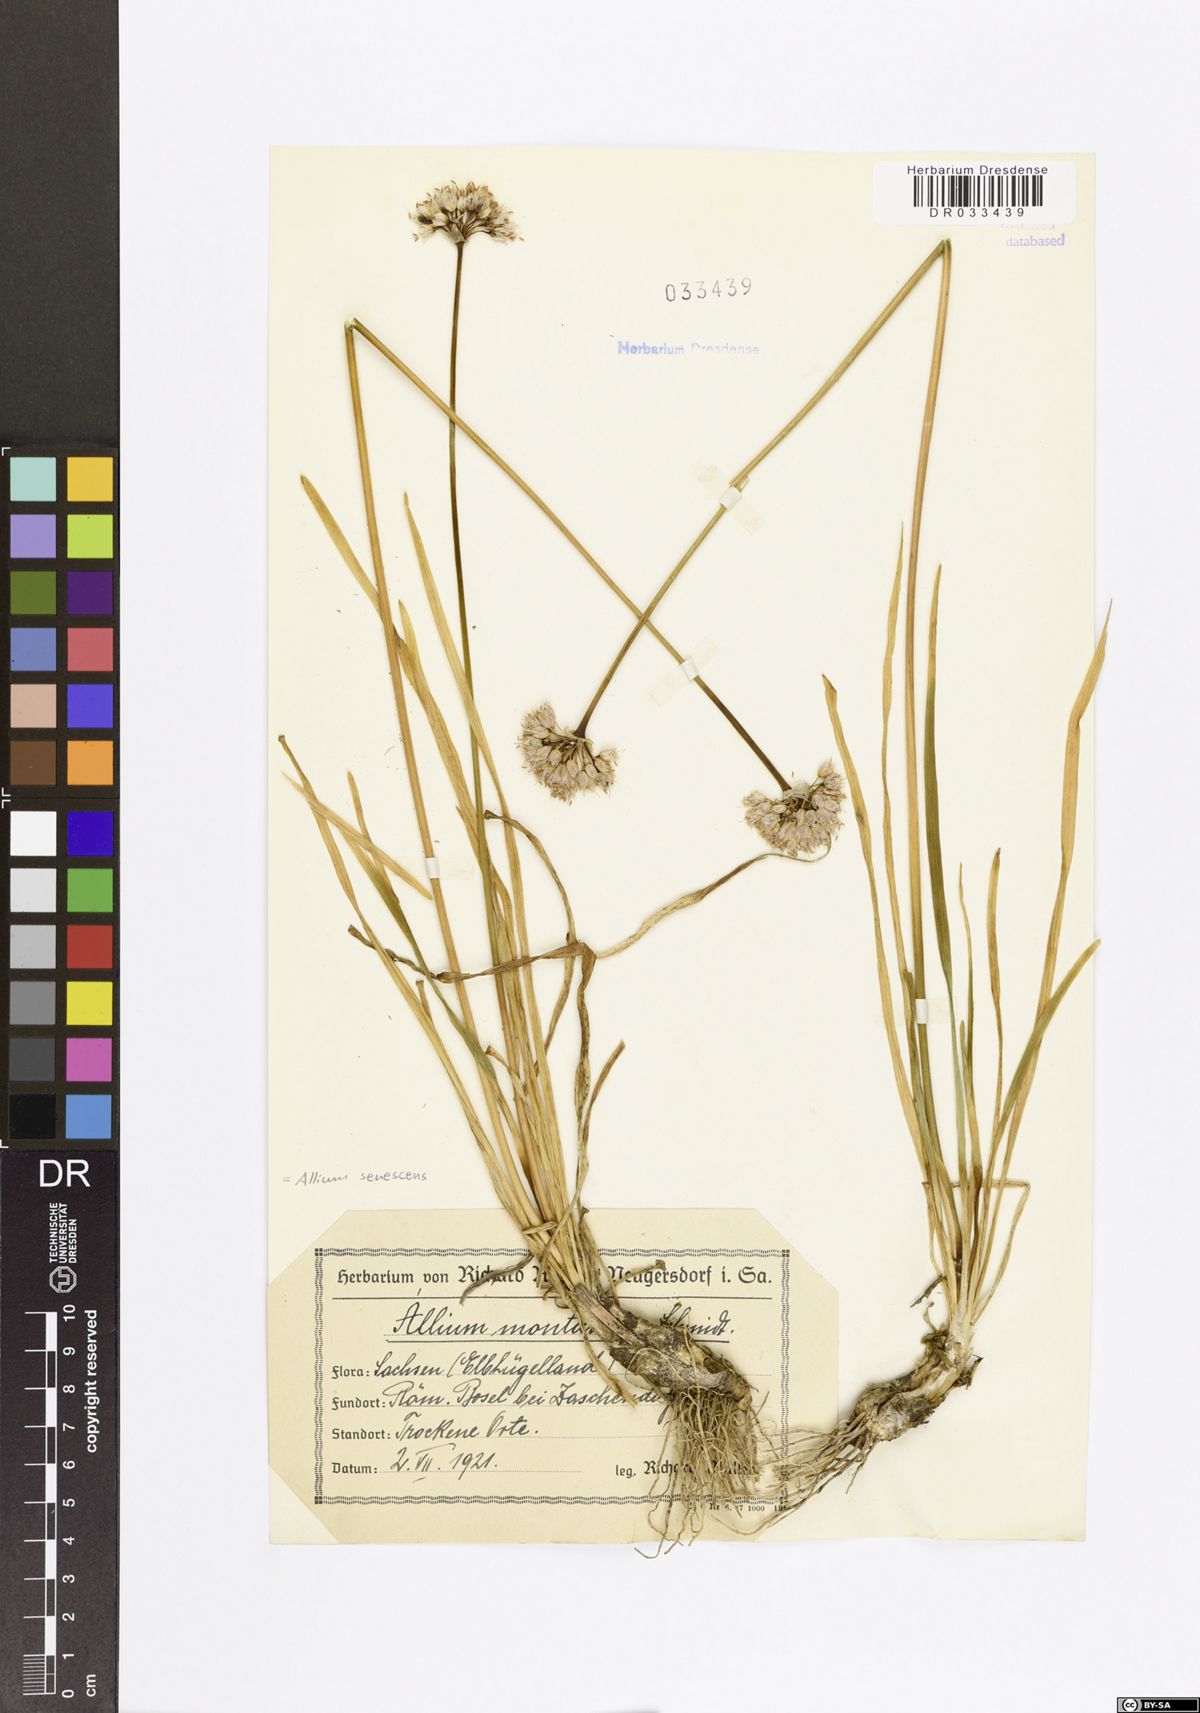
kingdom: Plantae
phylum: Tracheophyta
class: Liliopsida
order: Asparagales
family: Amaryllidaceae
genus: Allium
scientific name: Allium senescens
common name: German garlic
